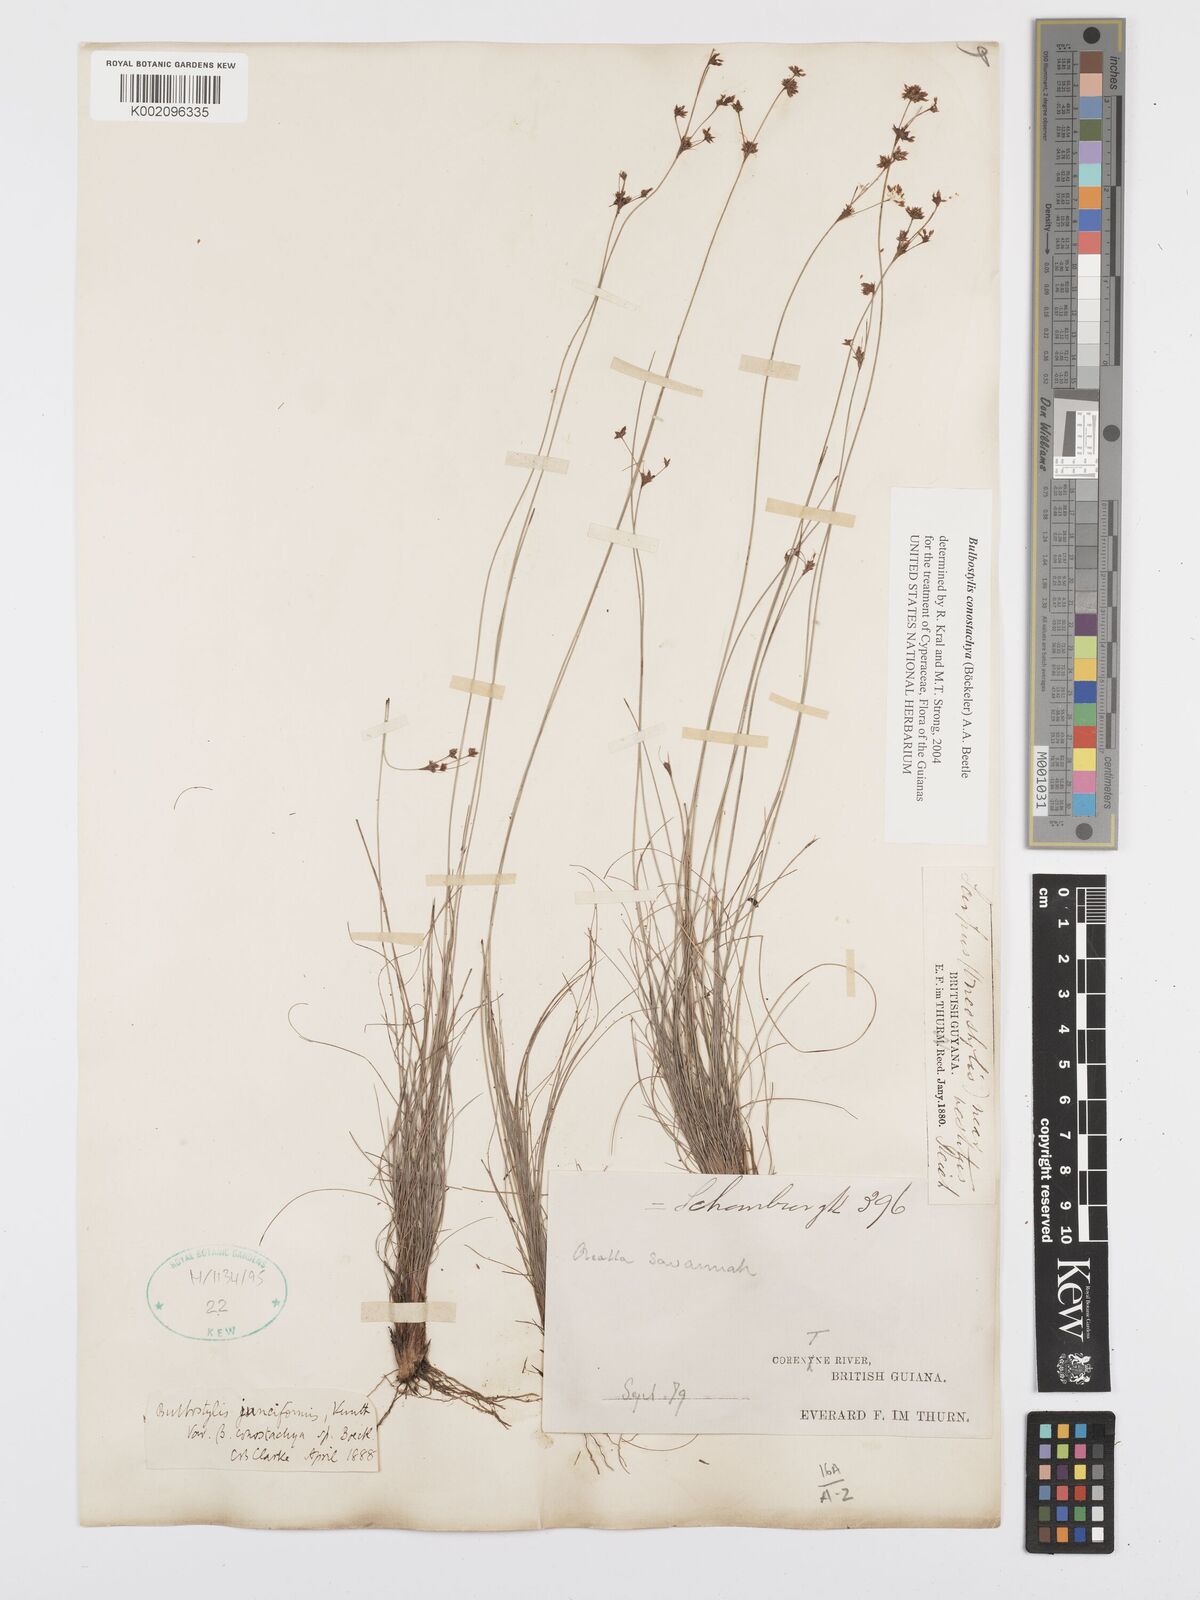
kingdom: Plantae
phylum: Tracheophyta
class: Liliopsida
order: Poales
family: Cyperaceae
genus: Bulbostylis
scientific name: Bulbostylis conostachya
